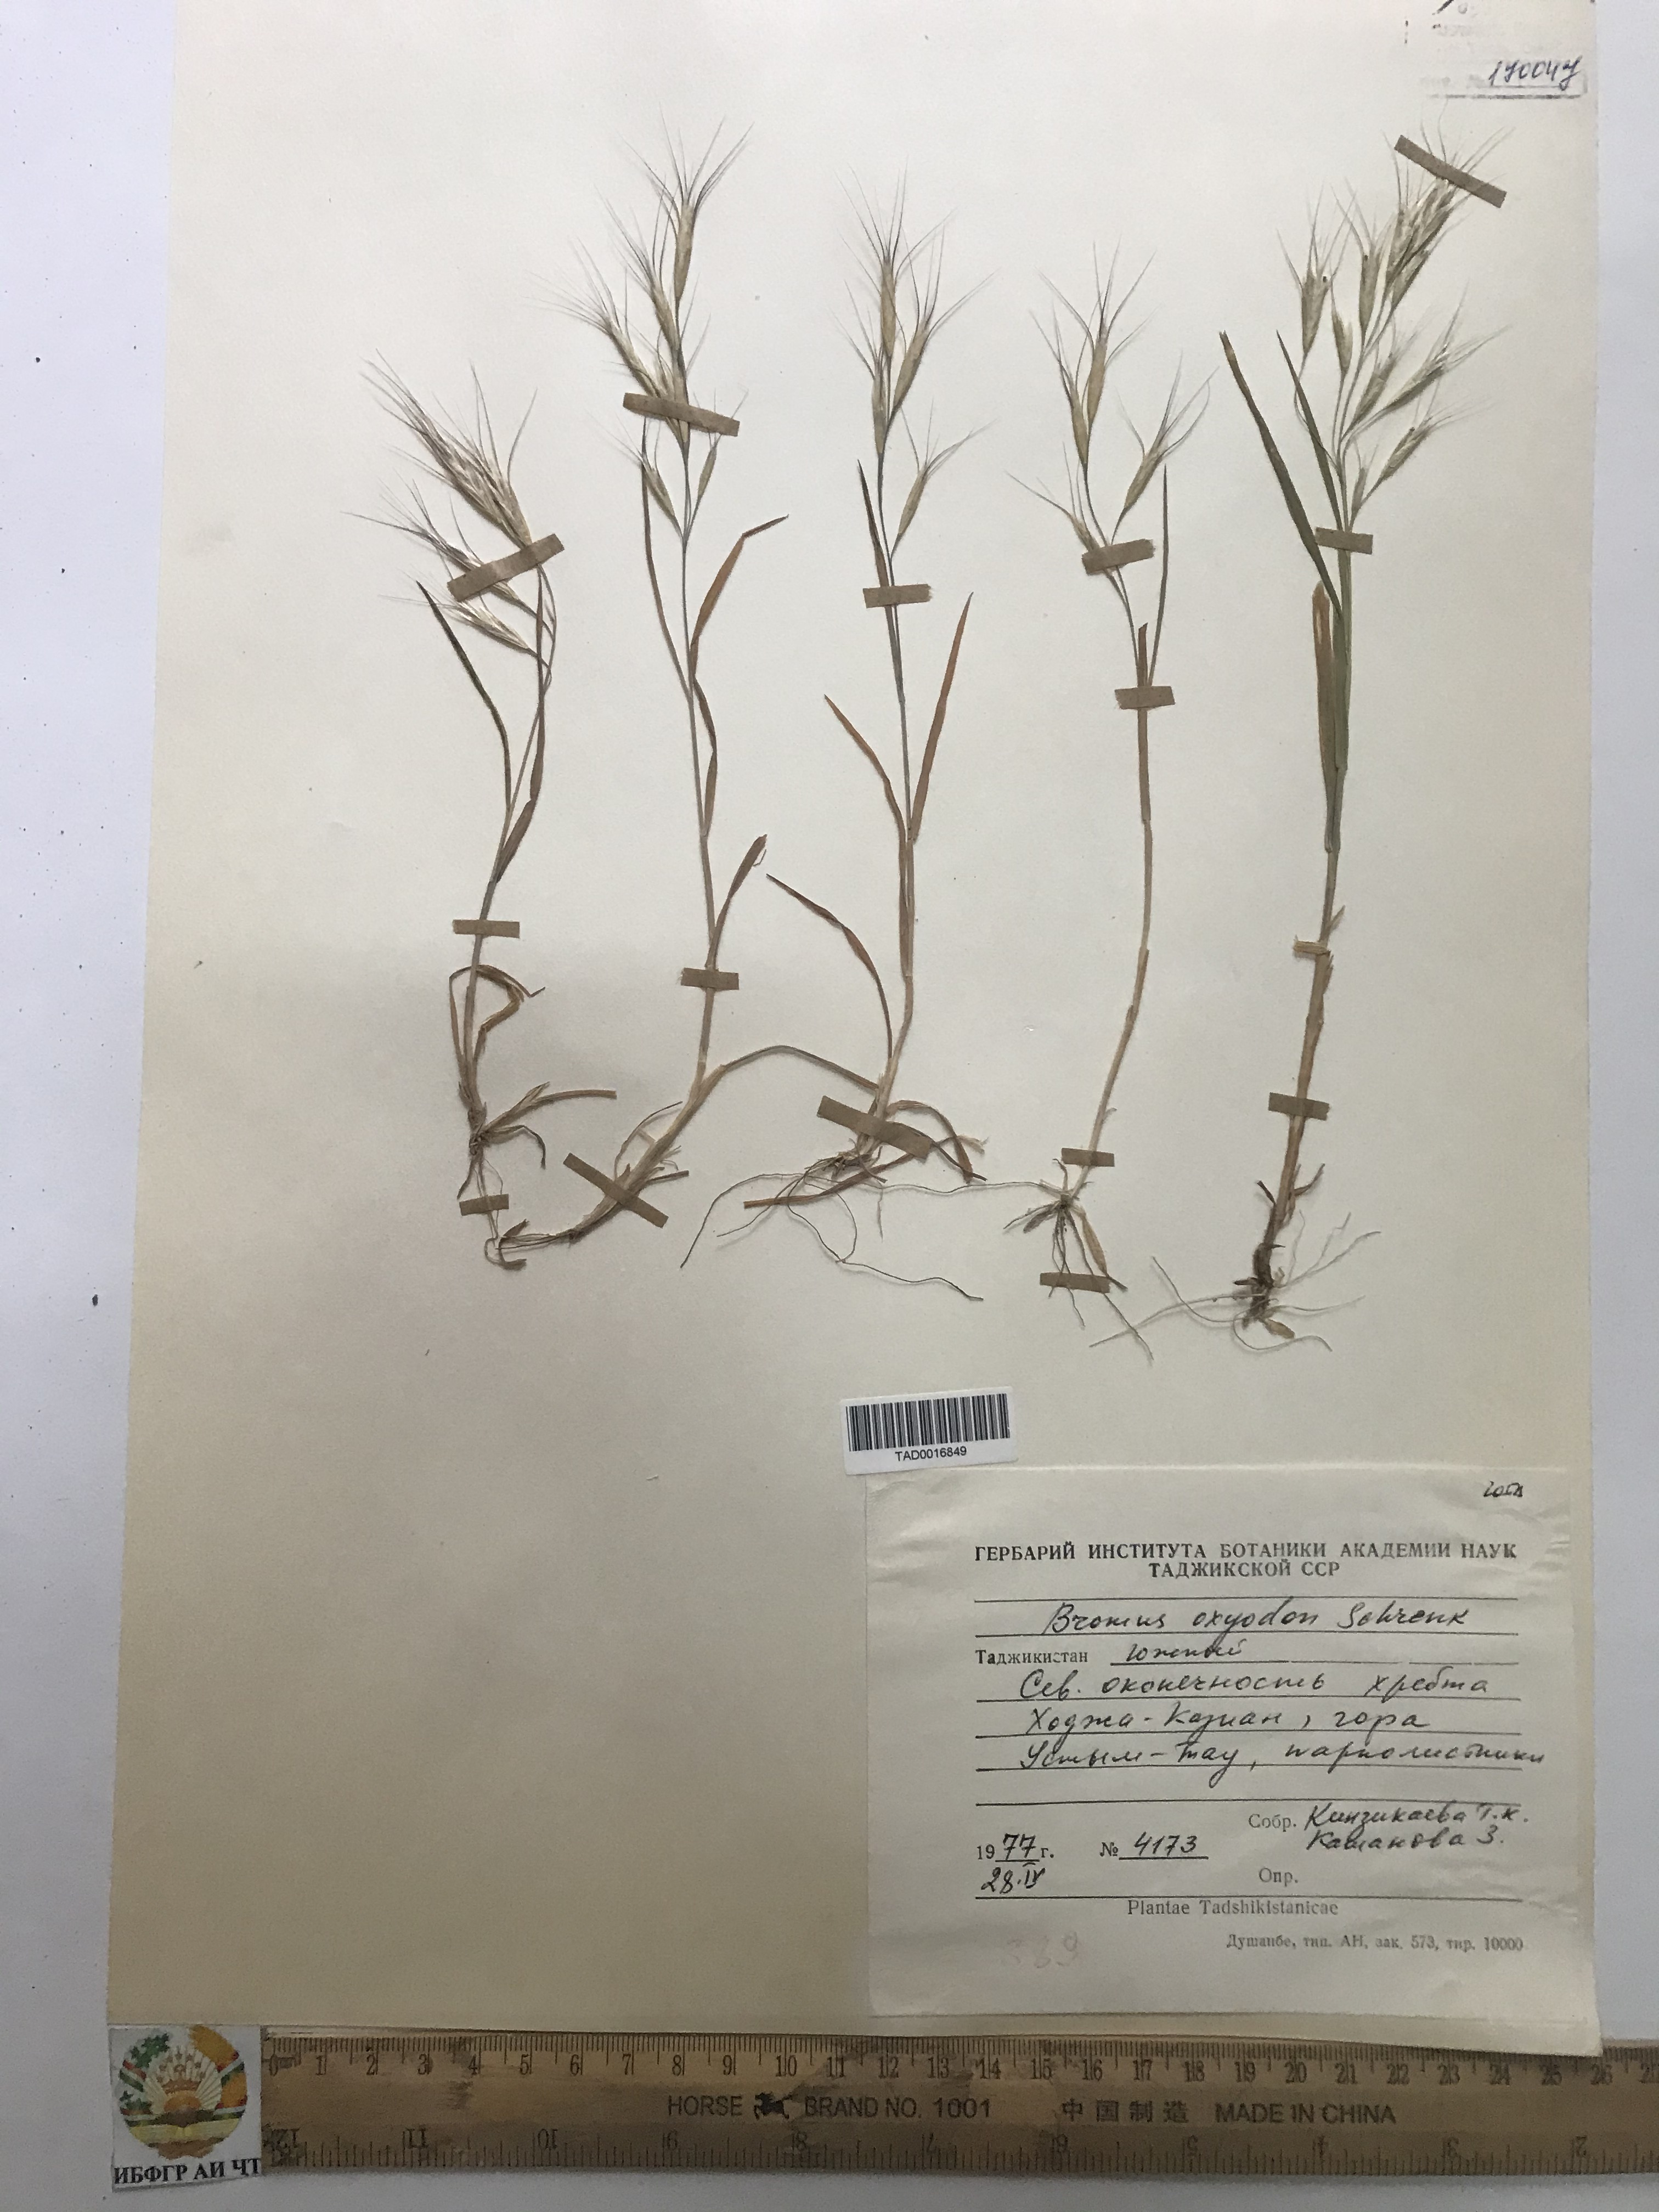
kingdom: Plantae
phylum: Tracheophyta
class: Liliopsida
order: Poales
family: Poaceae
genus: Bromus
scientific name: Bromus oxyodon
